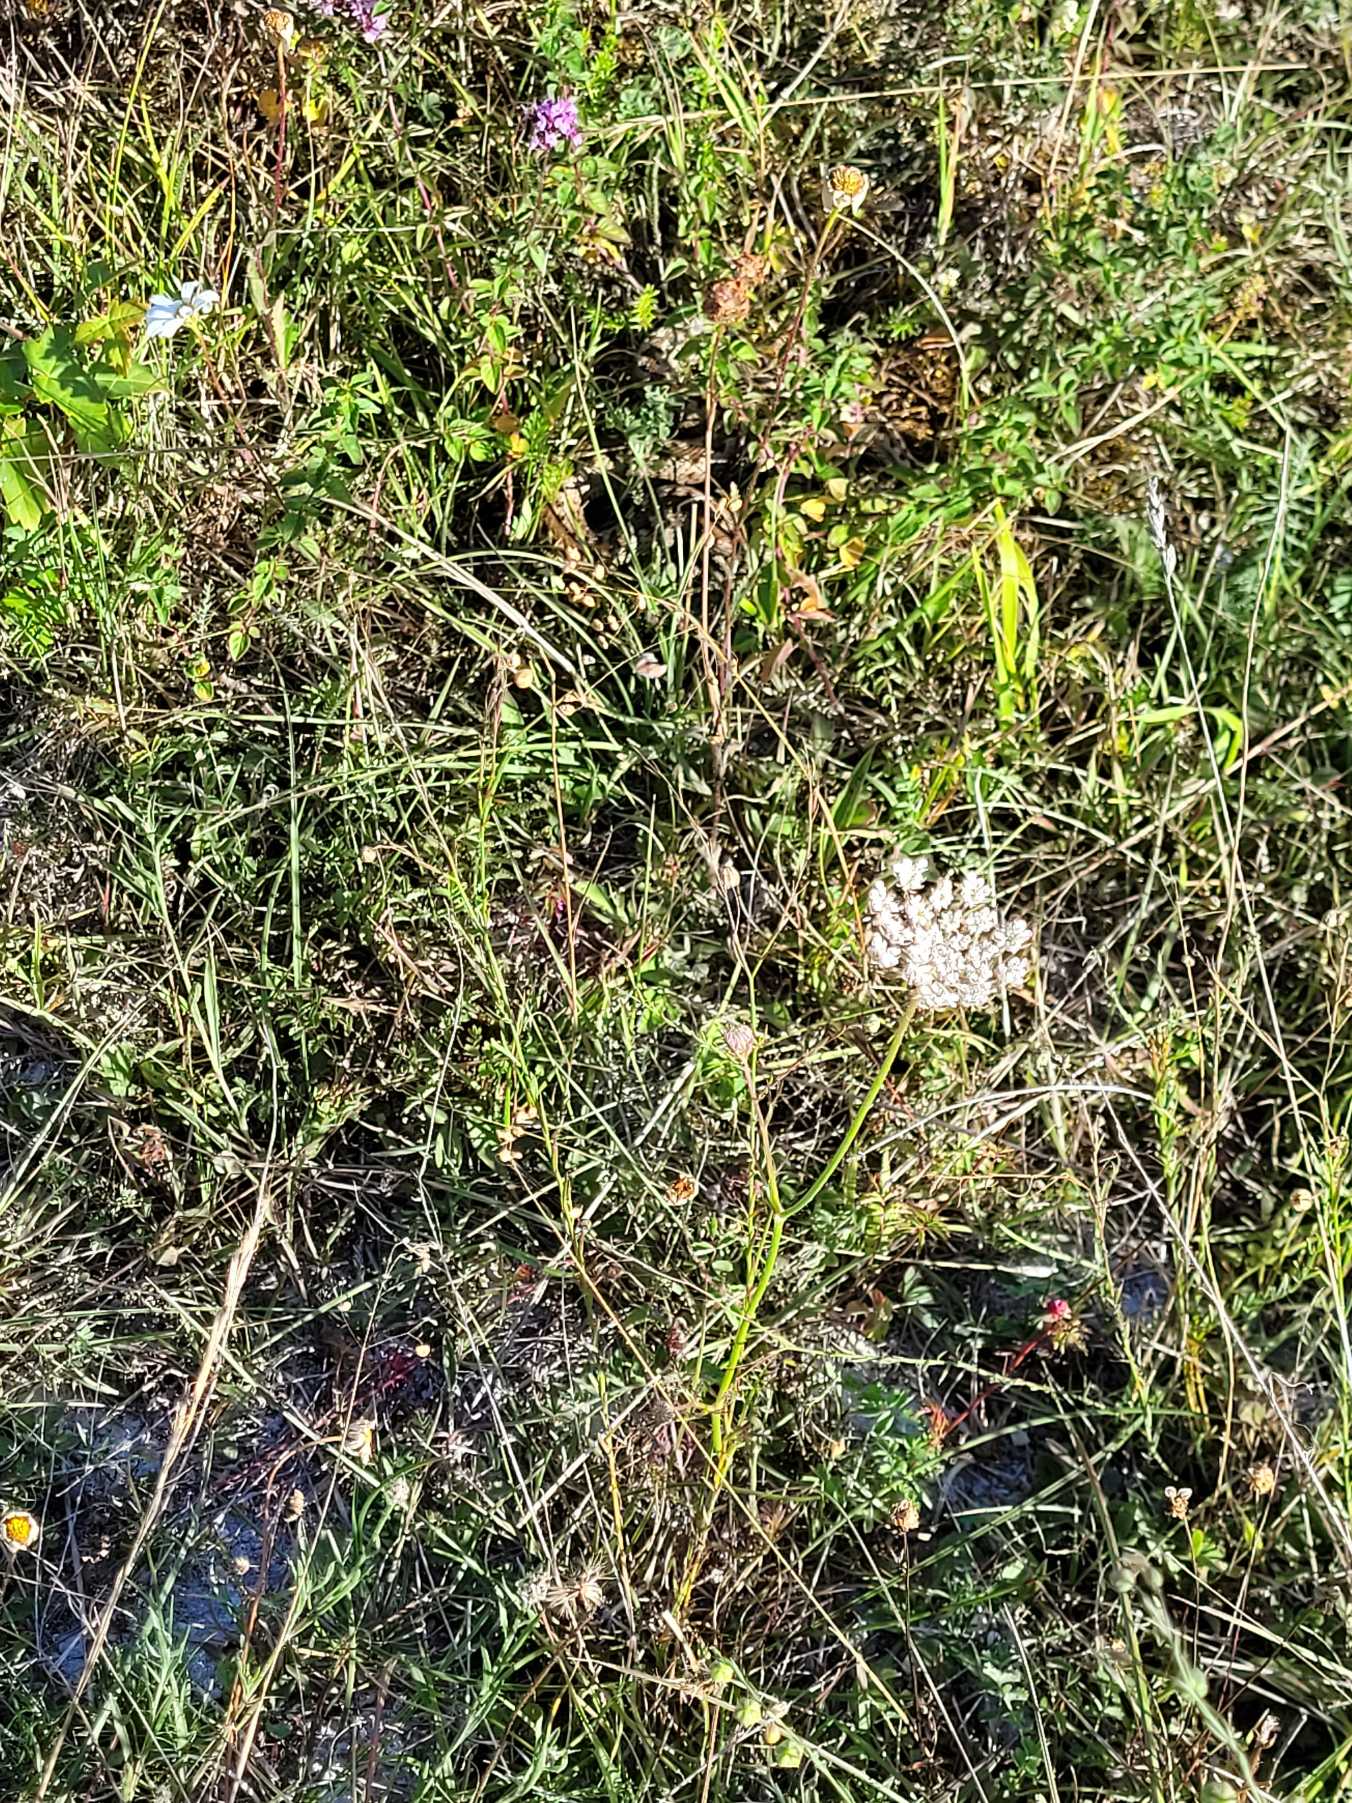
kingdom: Animalia
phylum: Chordata
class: Squamata
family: Viperidae
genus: Vipera
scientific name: Vipera berus
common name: Hugorm
